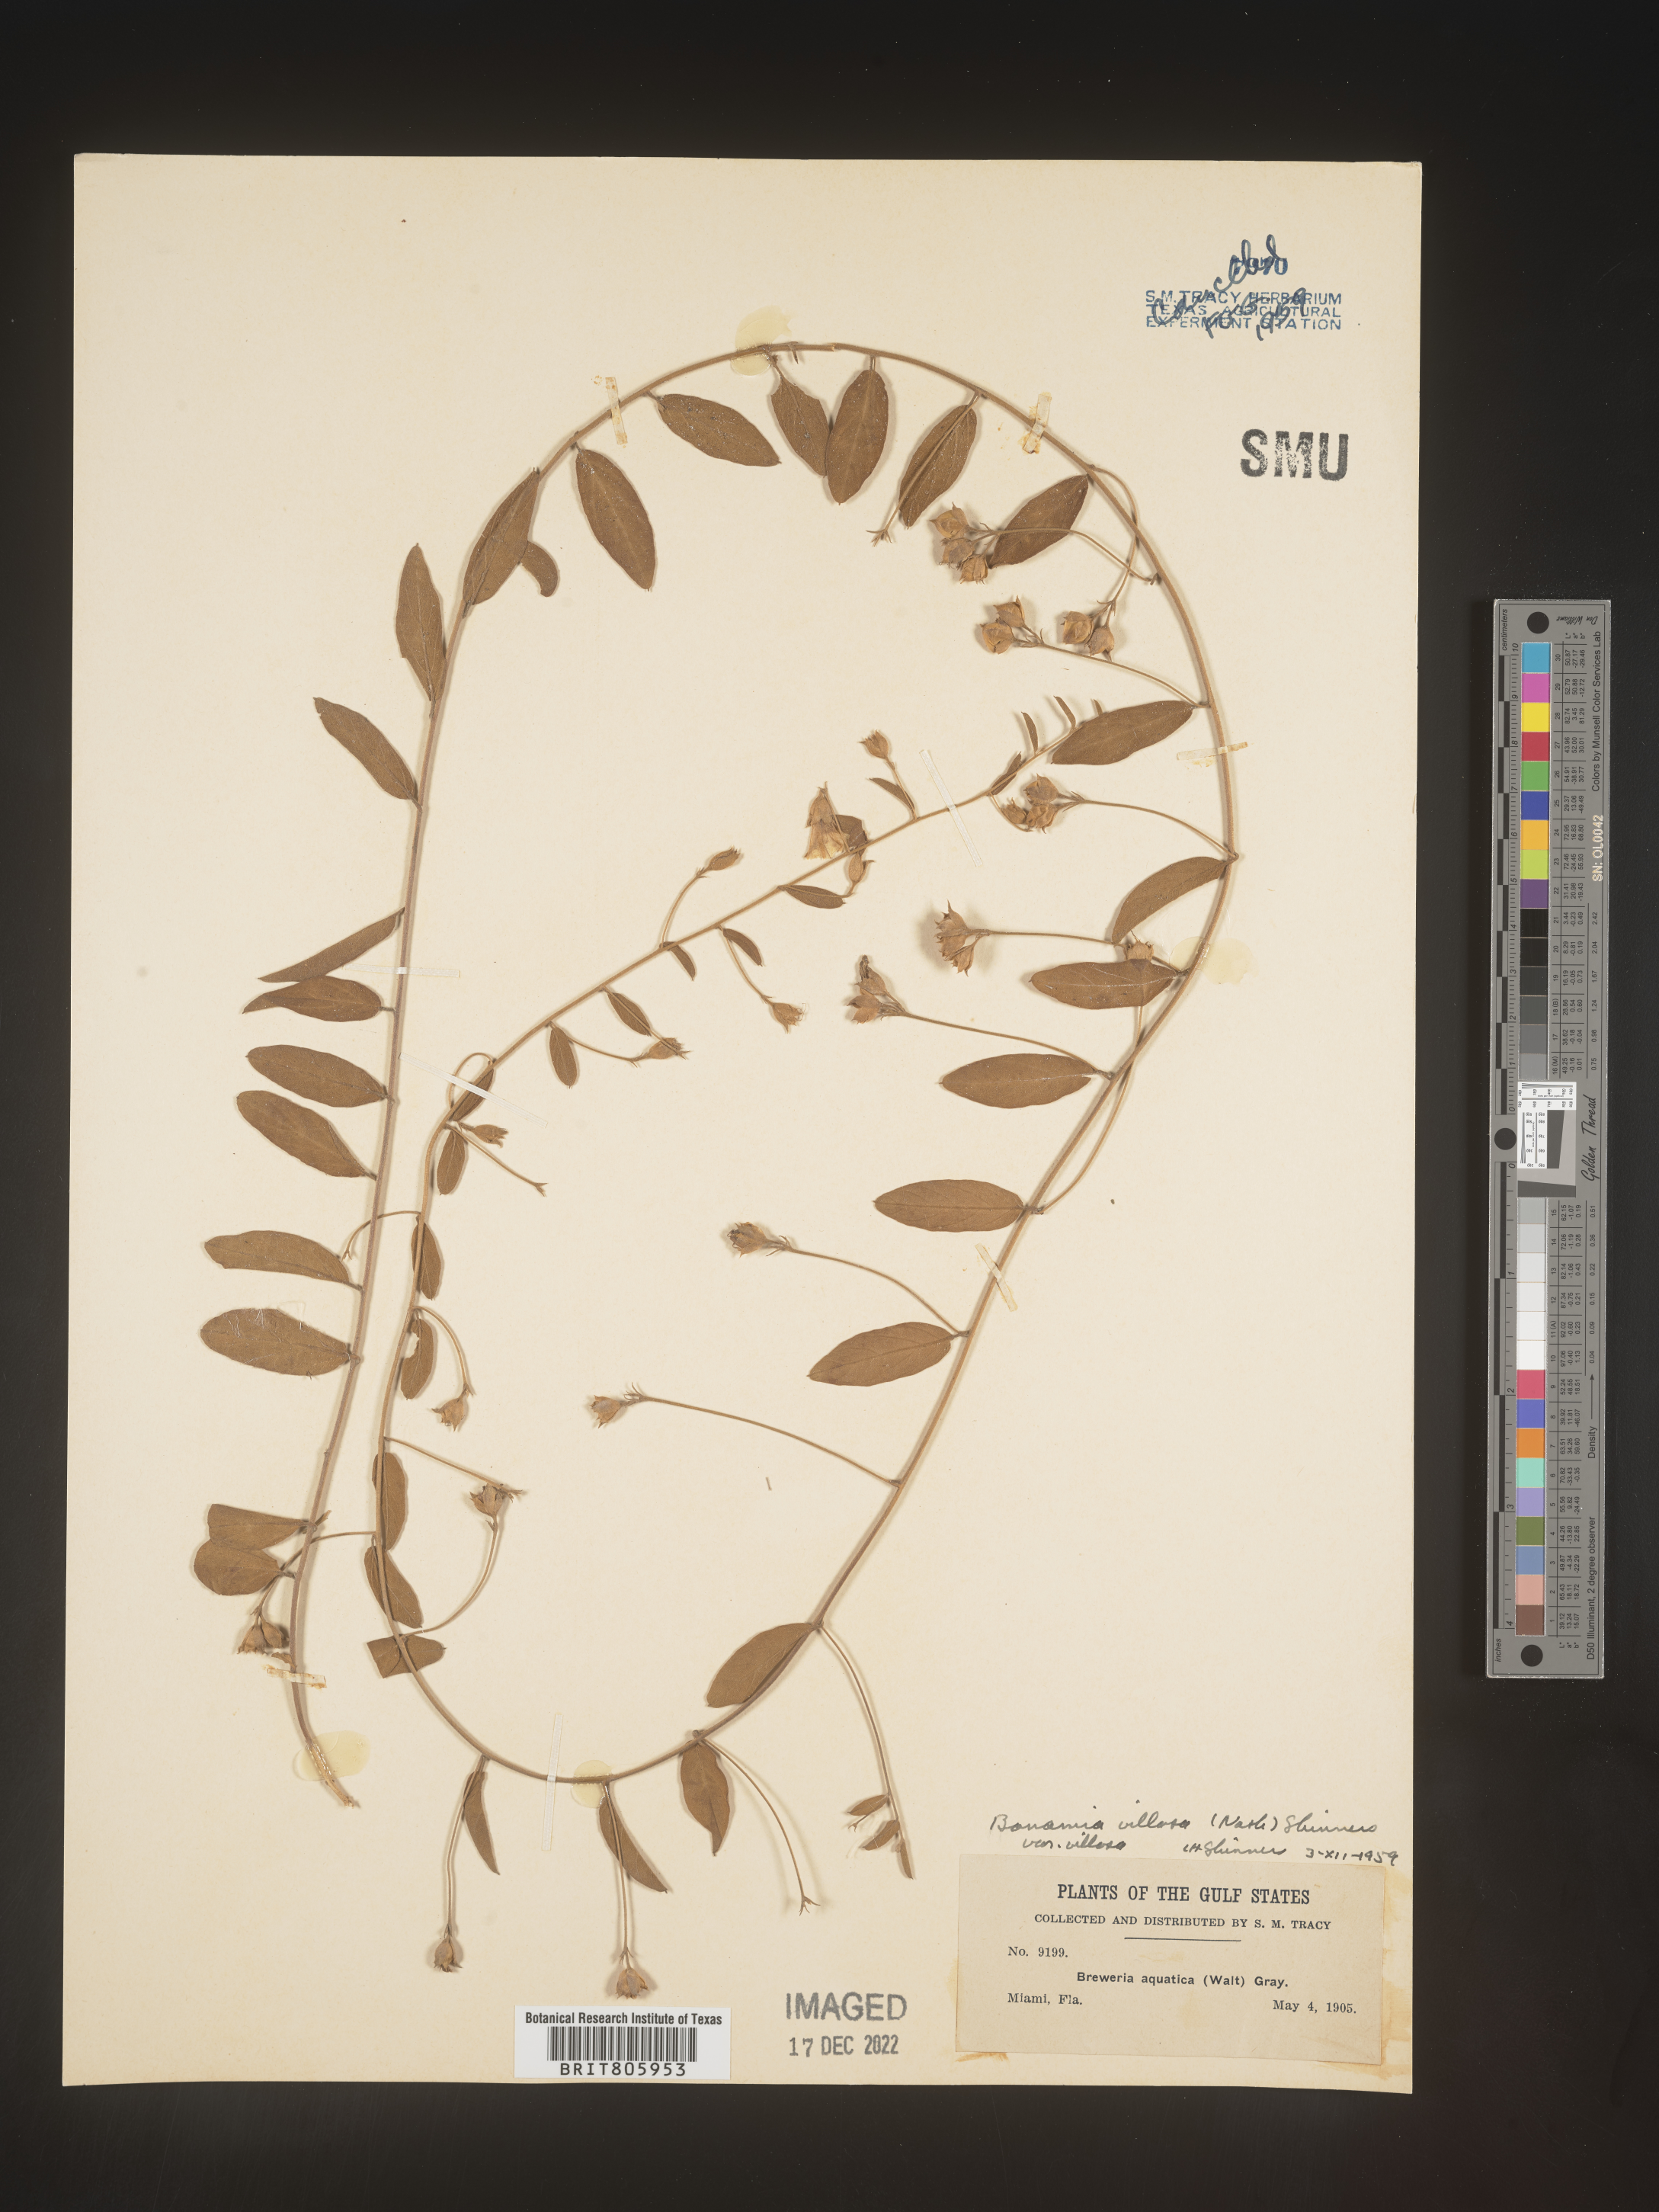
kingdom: Plantae
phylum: Tracheophyta
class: Magnoliopsida
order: Solanales
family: Convolvulaceae
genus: Stylisma
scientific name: Stylisma
